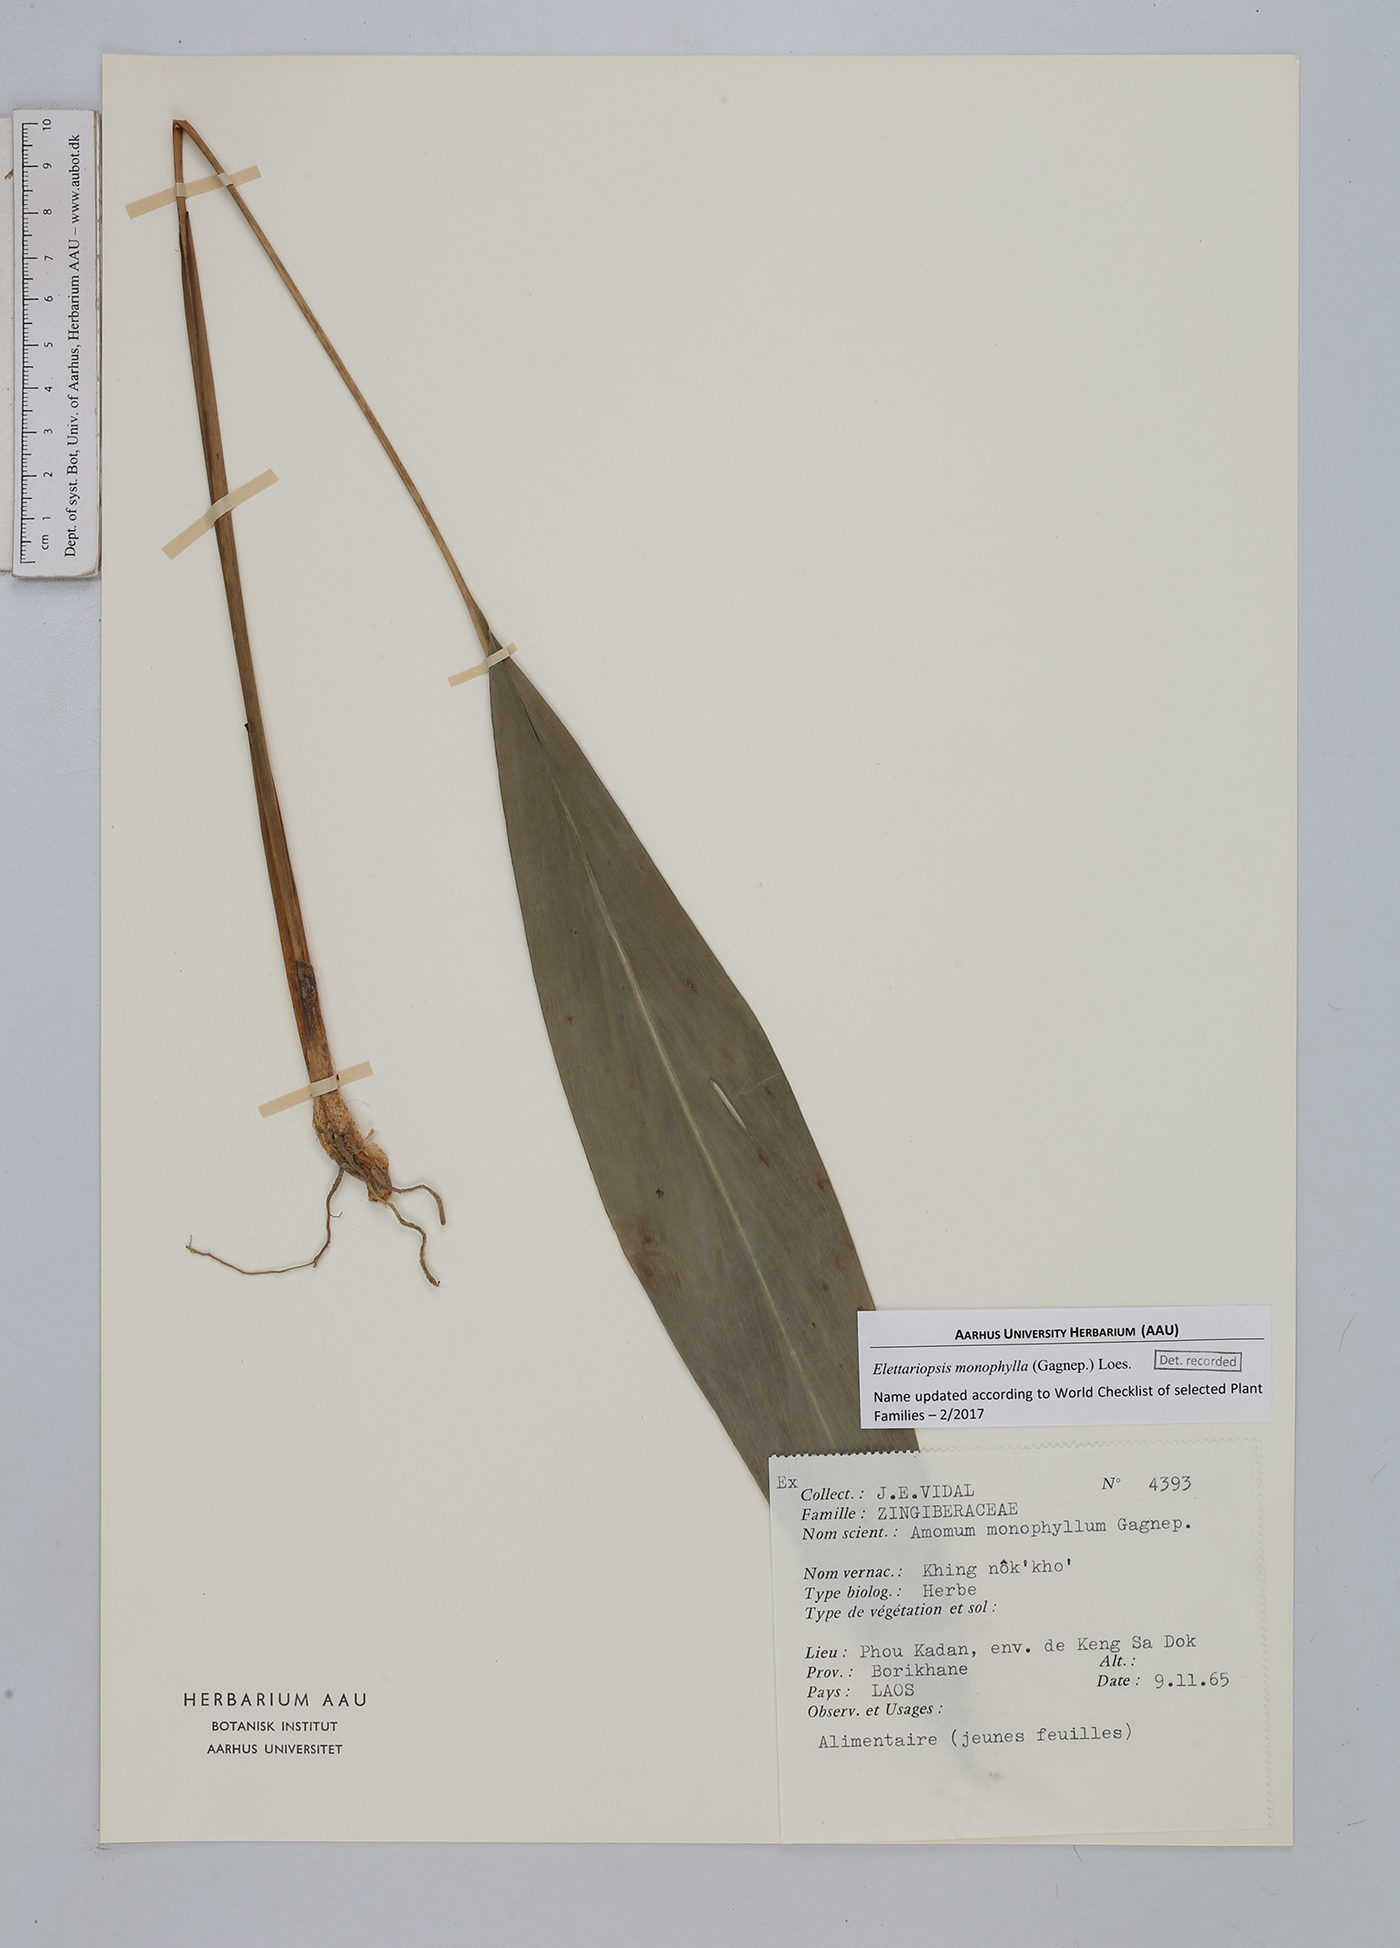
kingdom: Plantae
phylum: Tracheophyta
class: Liliopsida
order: Zingiberales
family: Zingiberaceae
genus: Amomum
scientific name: Amomum monophyllum
